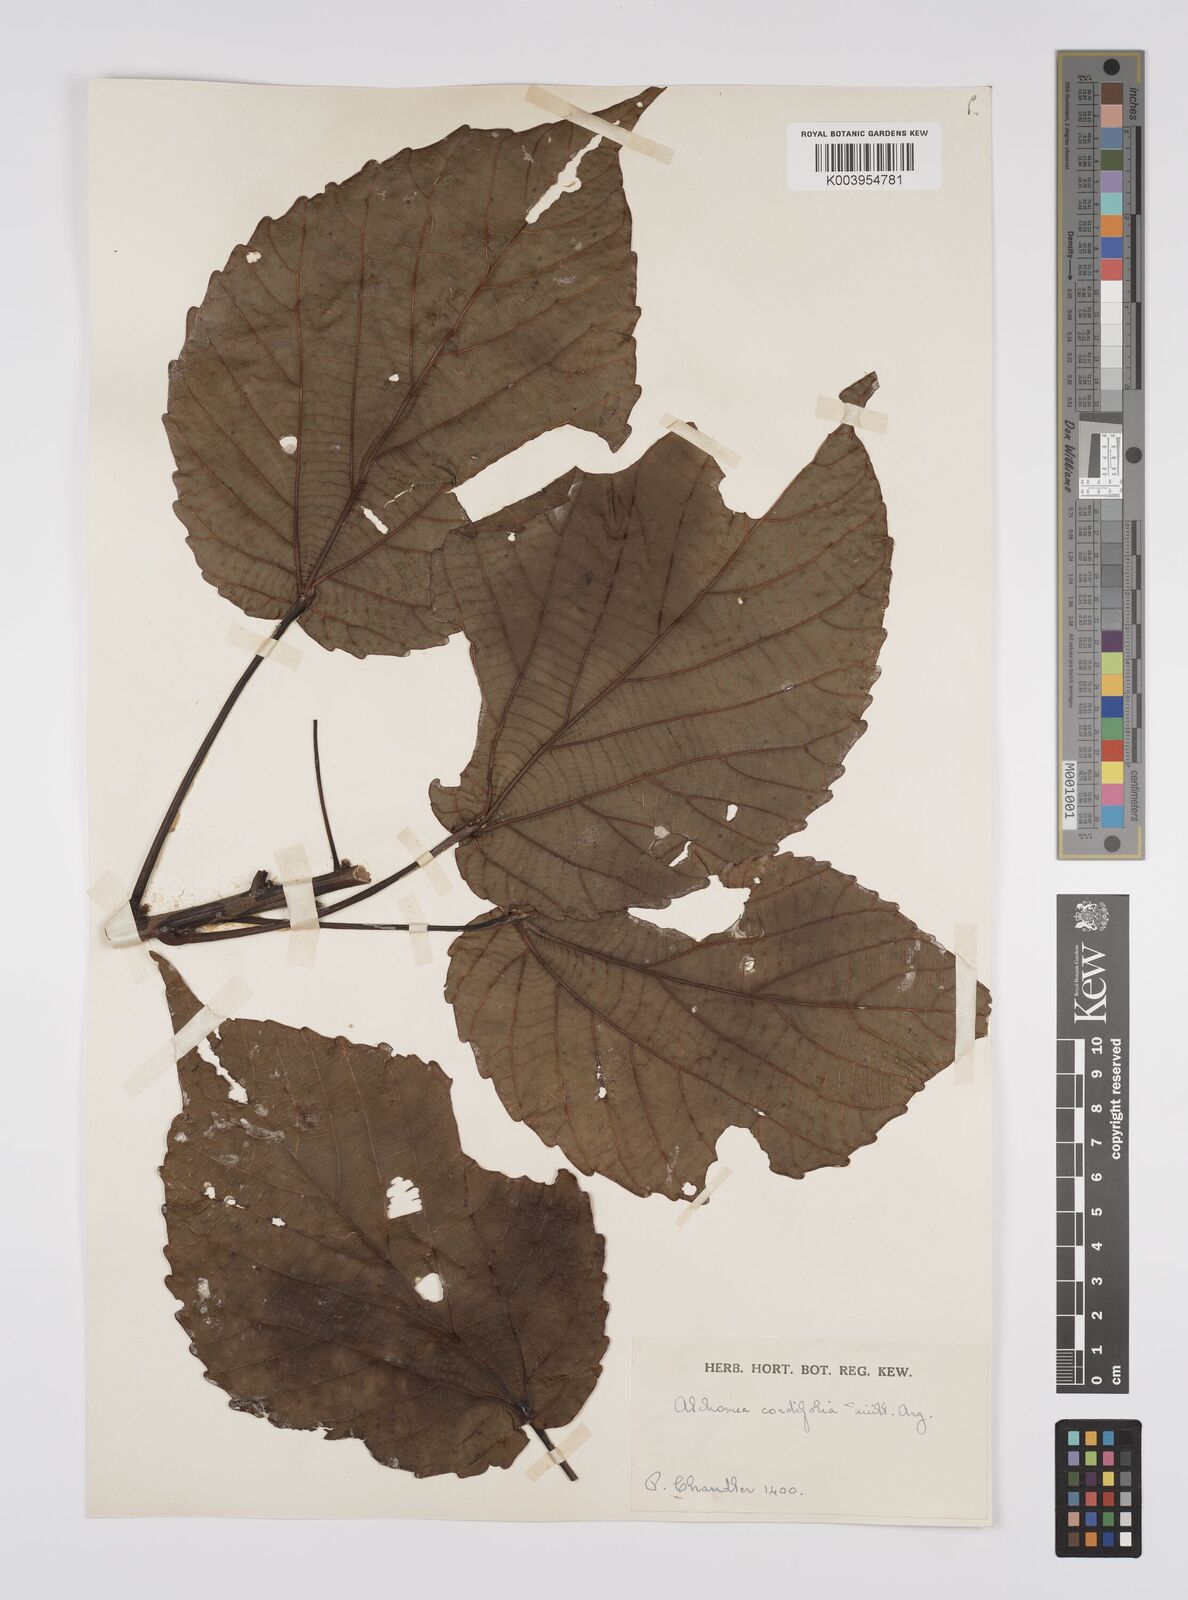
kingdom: Plantae
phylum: Tracheophyta
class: Magnoliopsida
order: Malpighiales
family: Euphorbiaceae
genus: Alchornea
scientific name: Alchornea cordifolia
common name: Christmasbush
